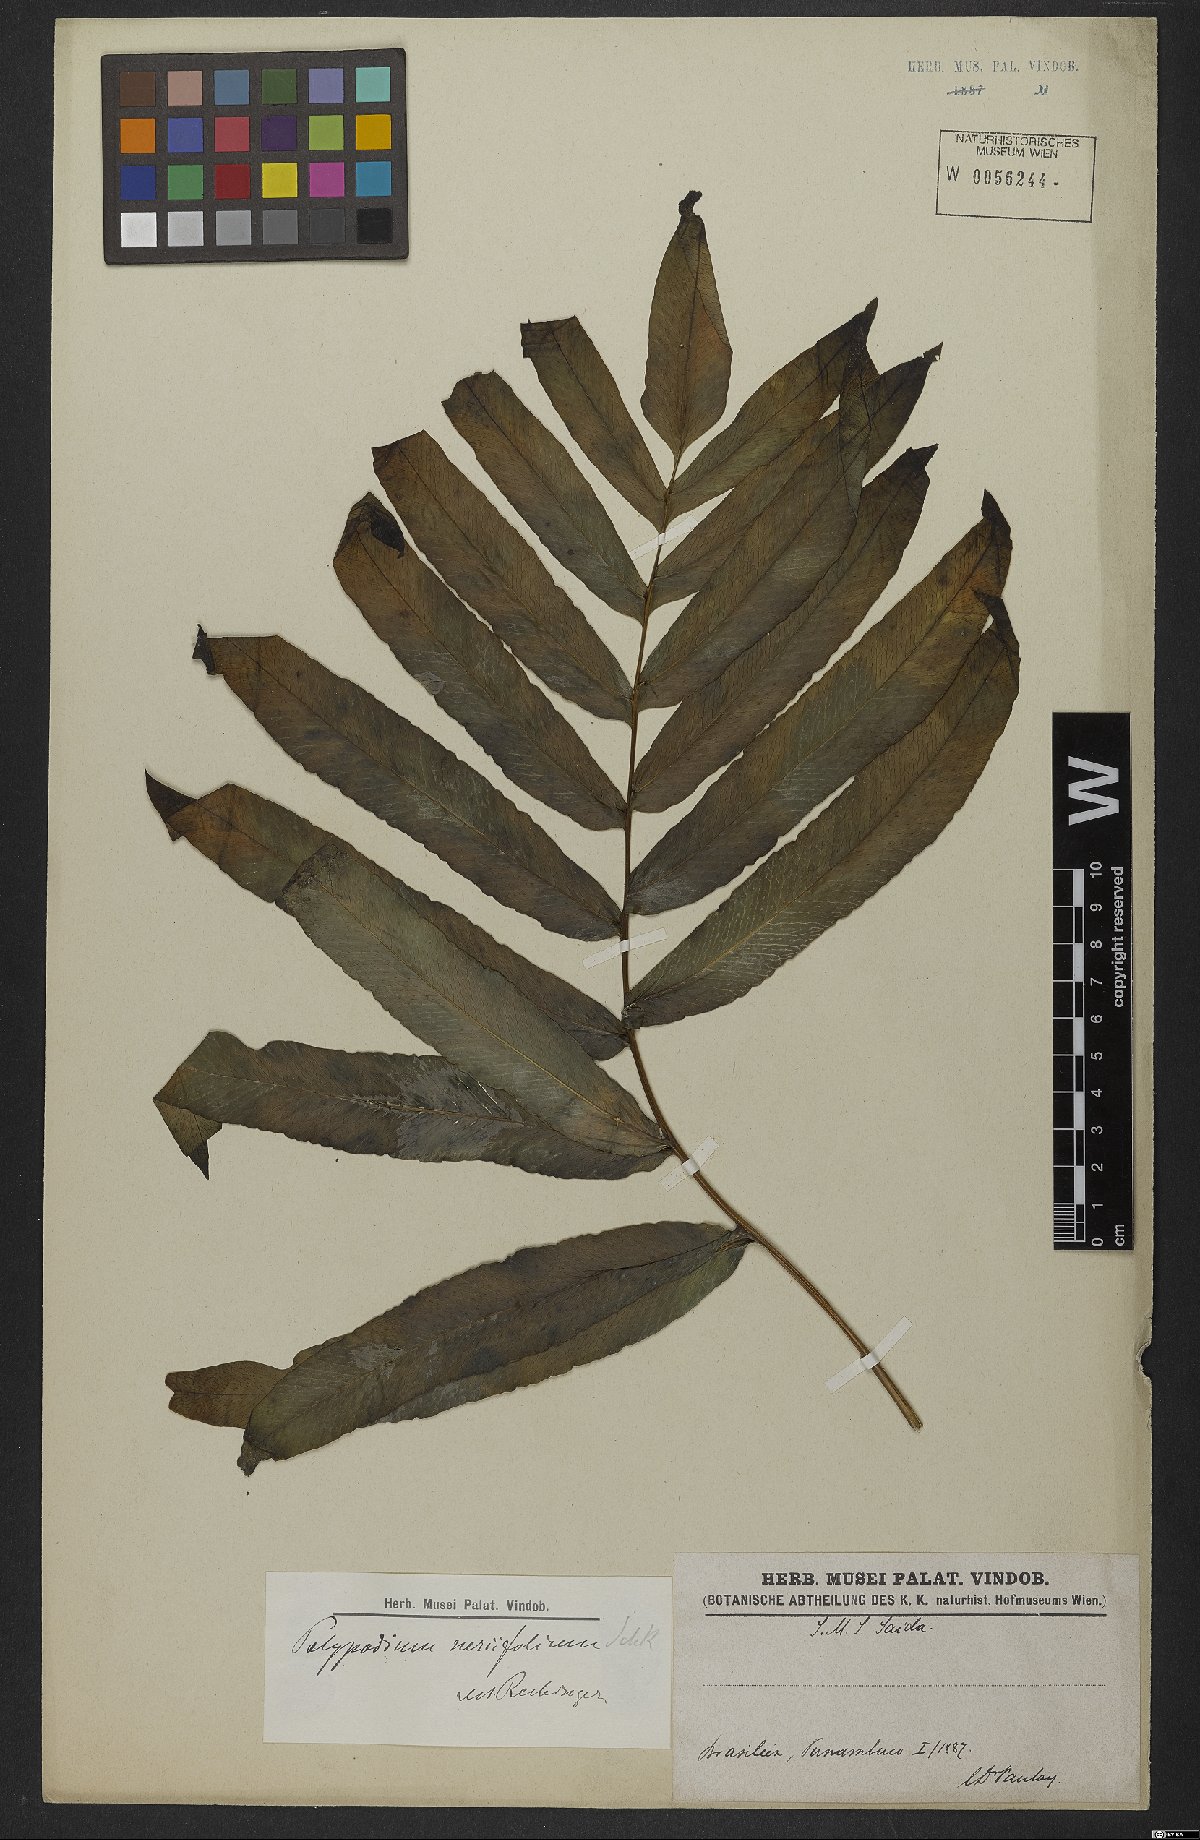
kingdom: Plantae
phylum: Tracheophyta
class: Polypodiopsida
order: Polypodiales
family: Polypodiaceae
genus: Serpocaulon
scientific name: Serpocaulon triseriale
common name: Angle-vein fern
